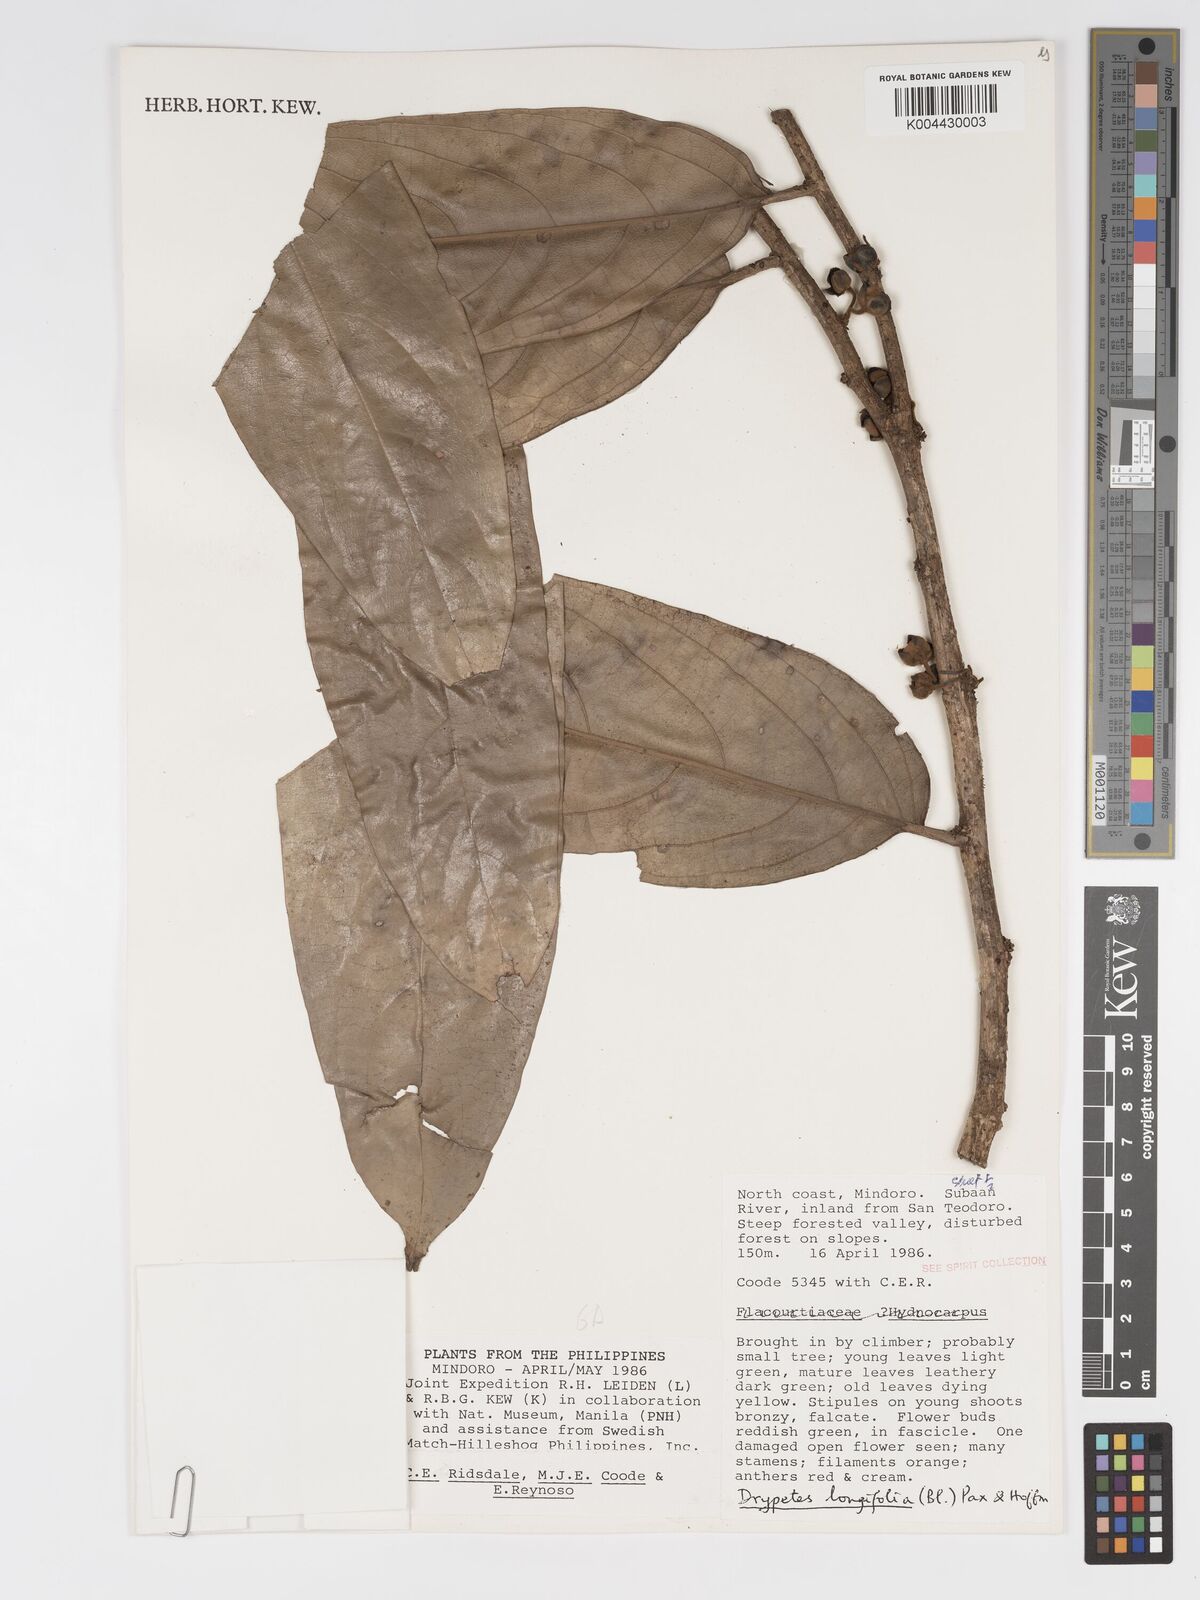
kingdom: Plantae
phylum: Tracheophyta
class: Magnoliopsida
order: Malpighiales
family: Putranjivaceae
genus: Drypetes
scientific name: Drypetes longifolia
